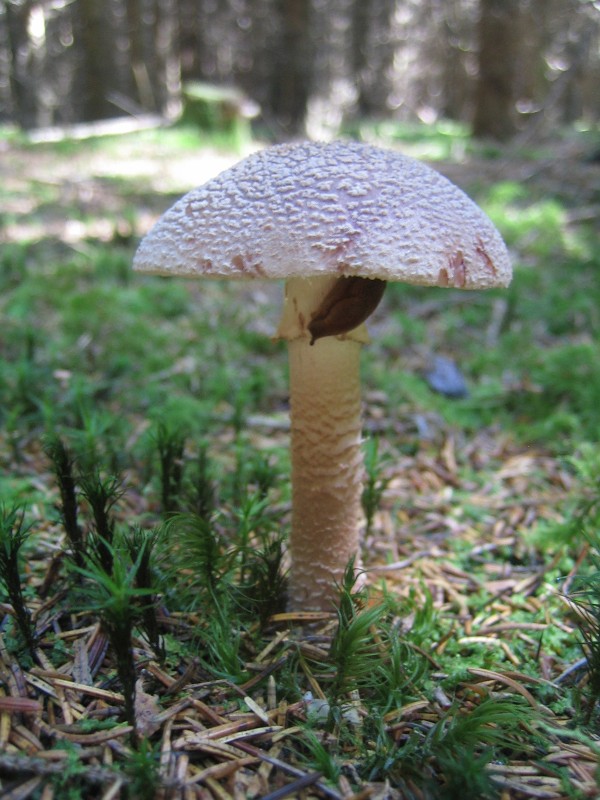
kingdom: Fungi
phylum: Basidiomycota
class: Agaricomycetes
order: Agaricales
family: Amanitaceae
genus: Amanita
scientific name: Amanita rubescens
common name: rødmende fluesvamp
